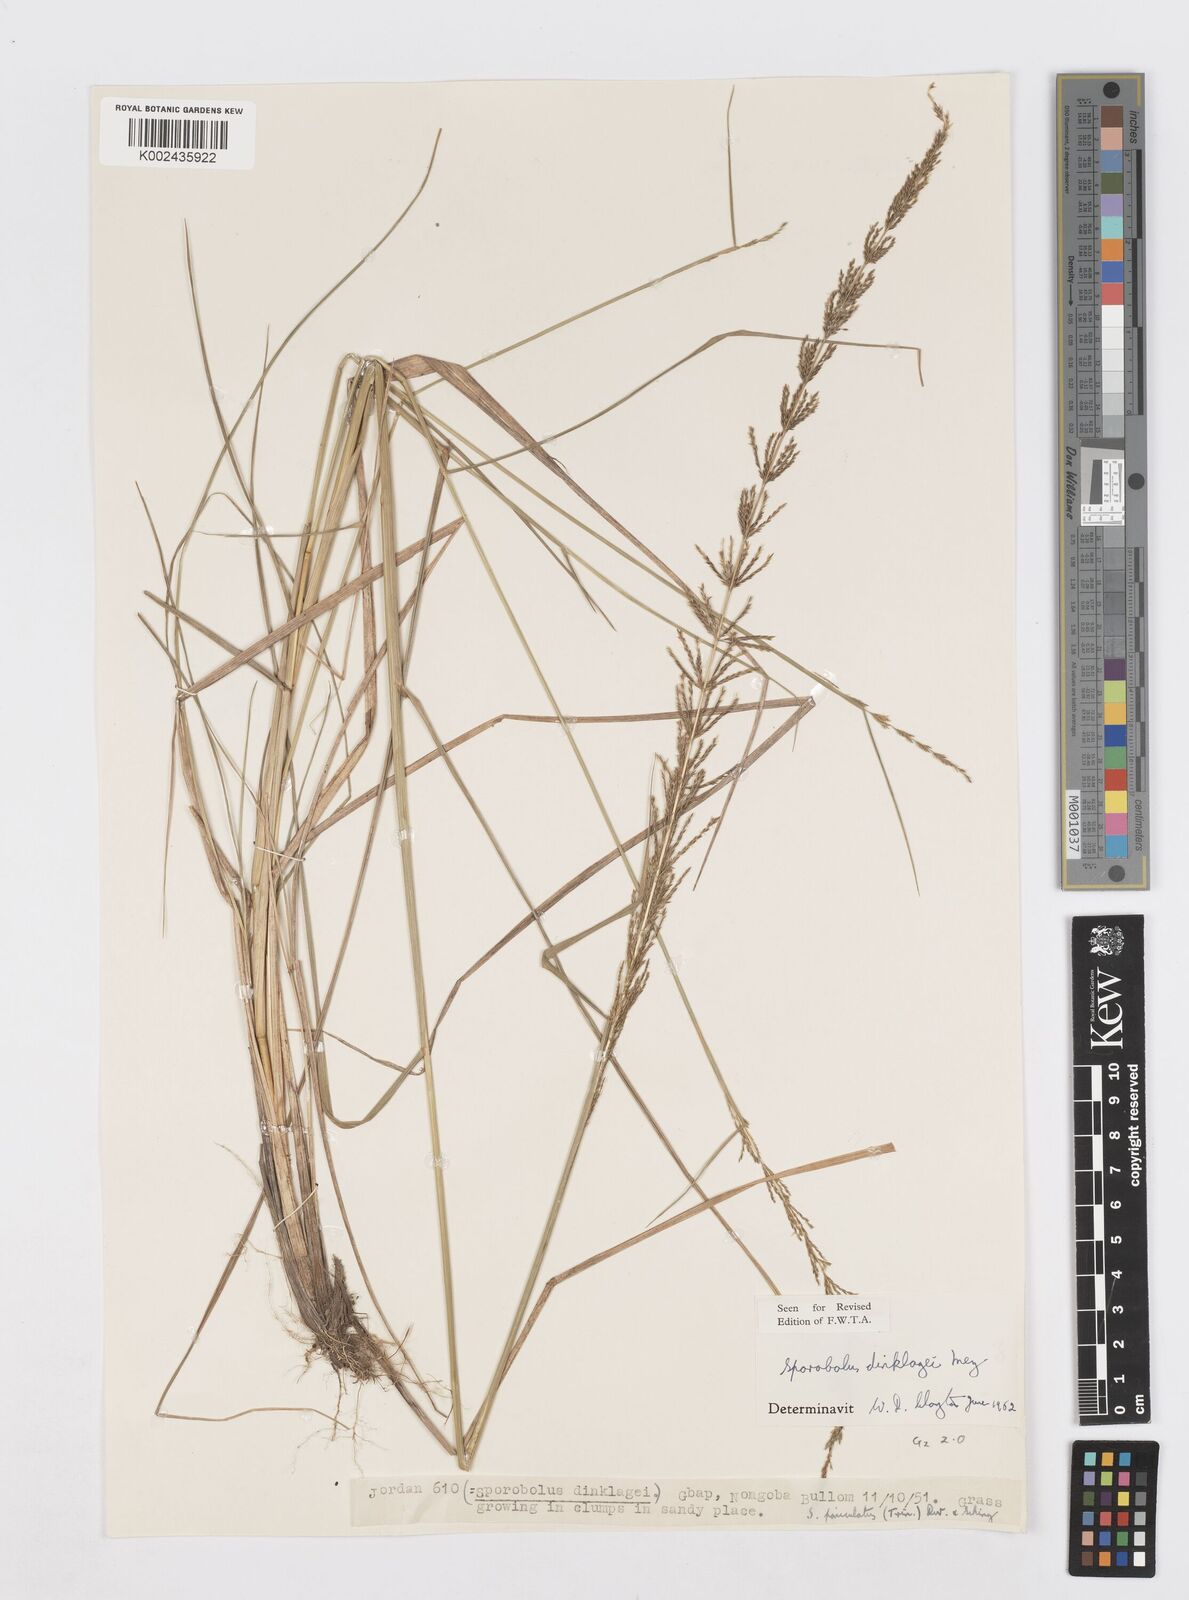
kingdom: Plantae
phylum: Tracheophyta
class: Liliopsida
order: Poales
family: Poaceae
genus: Sporobolus
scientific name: Sporobolus dinklagei
